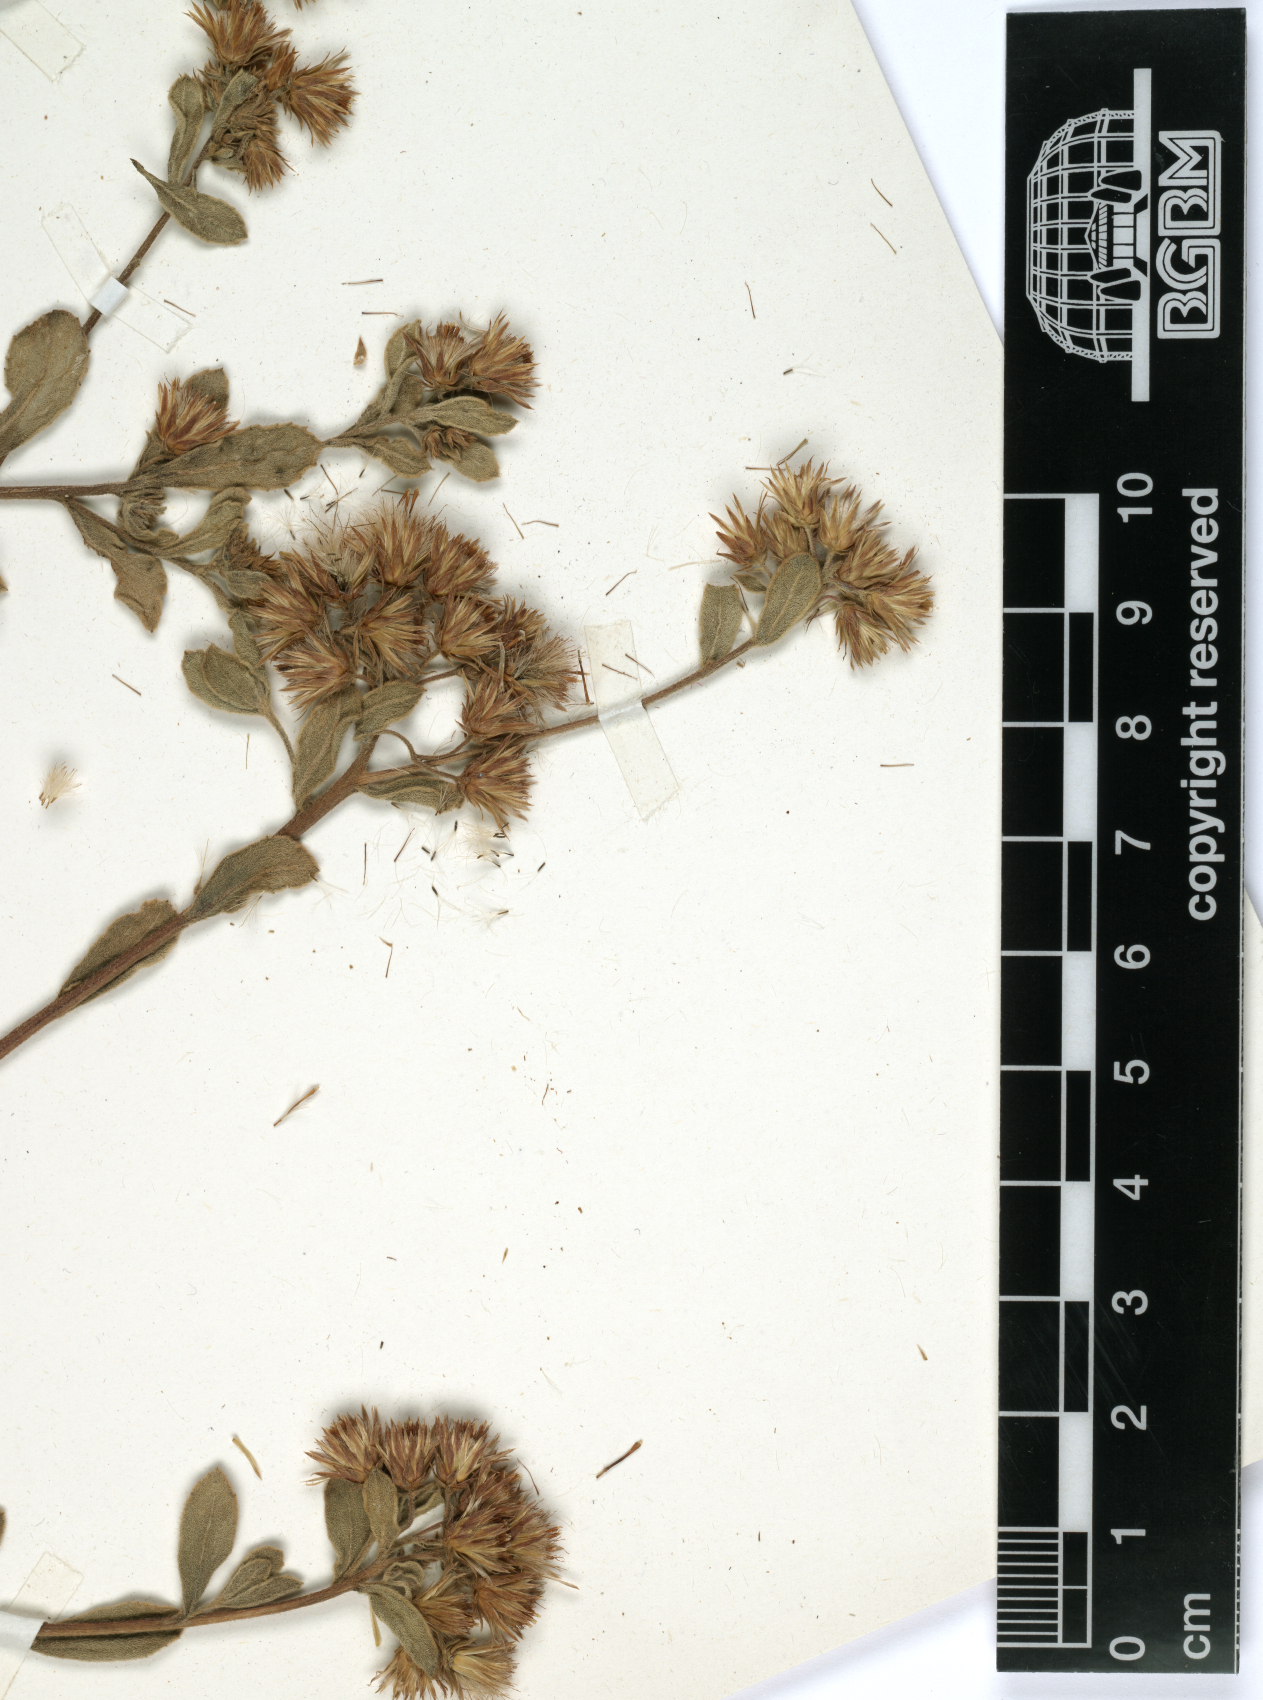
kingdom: Plantae
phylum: Tracheophyta
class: Magnoliopsida
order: Asterales
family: Asteraceae
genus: Pluchea
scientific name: Pluchea sordida
